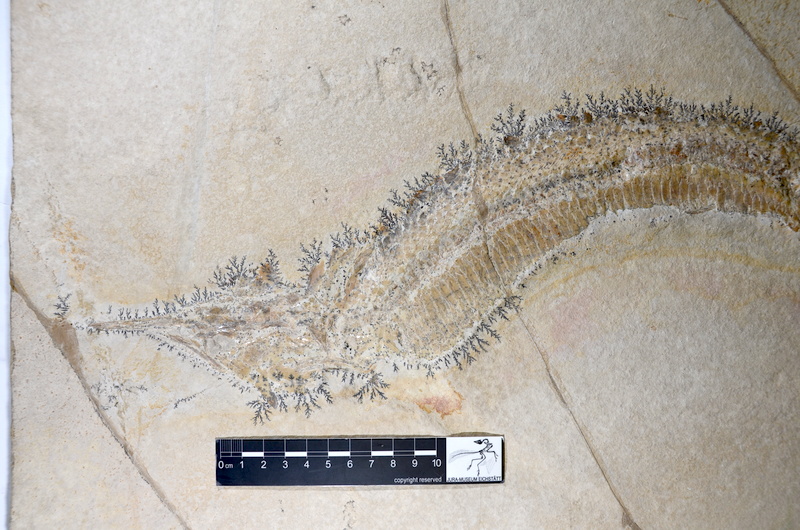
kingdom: Animalia
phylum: Chordata
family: Aspidorhynchidae
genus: Aspidorhynchus
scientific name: Aspidorhynchus acutirostris
